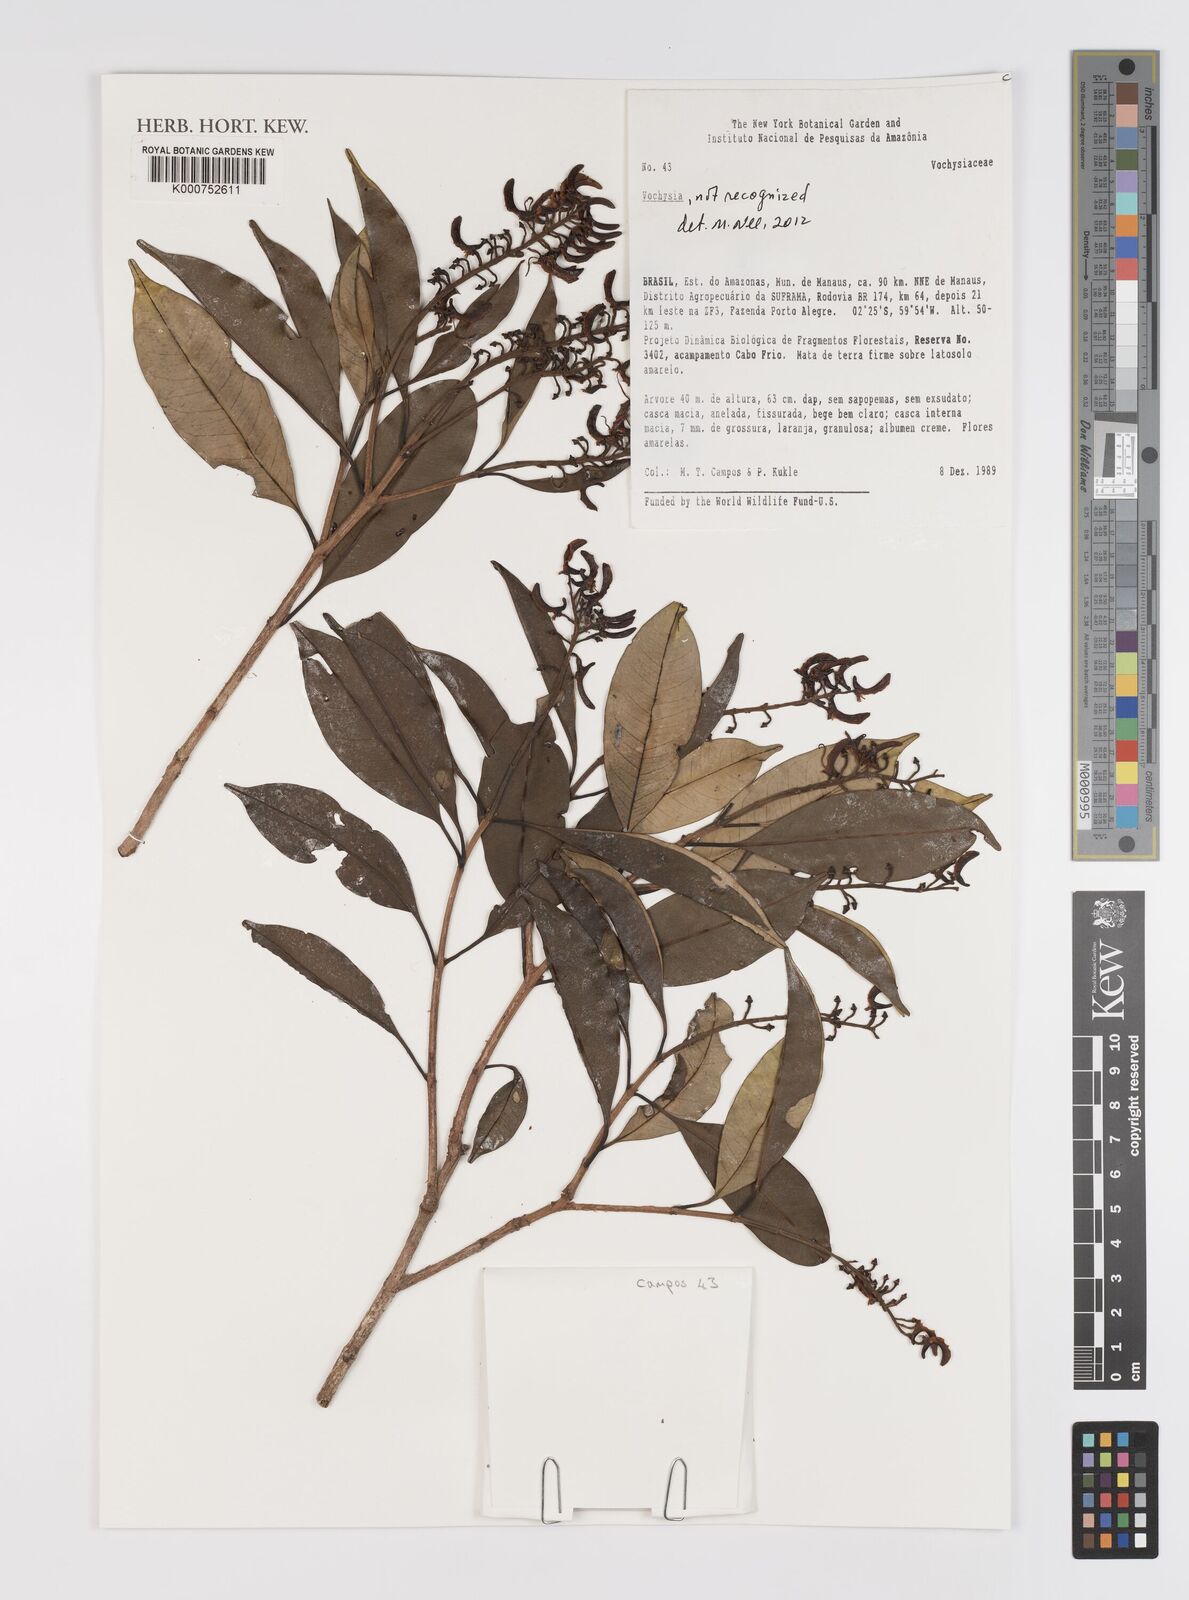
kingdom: Plantae
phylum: Tracheophyta
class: Magnoliopsida
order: Myrtales
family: Vochysiaceae
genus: Vochysia
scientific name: Vochysia
